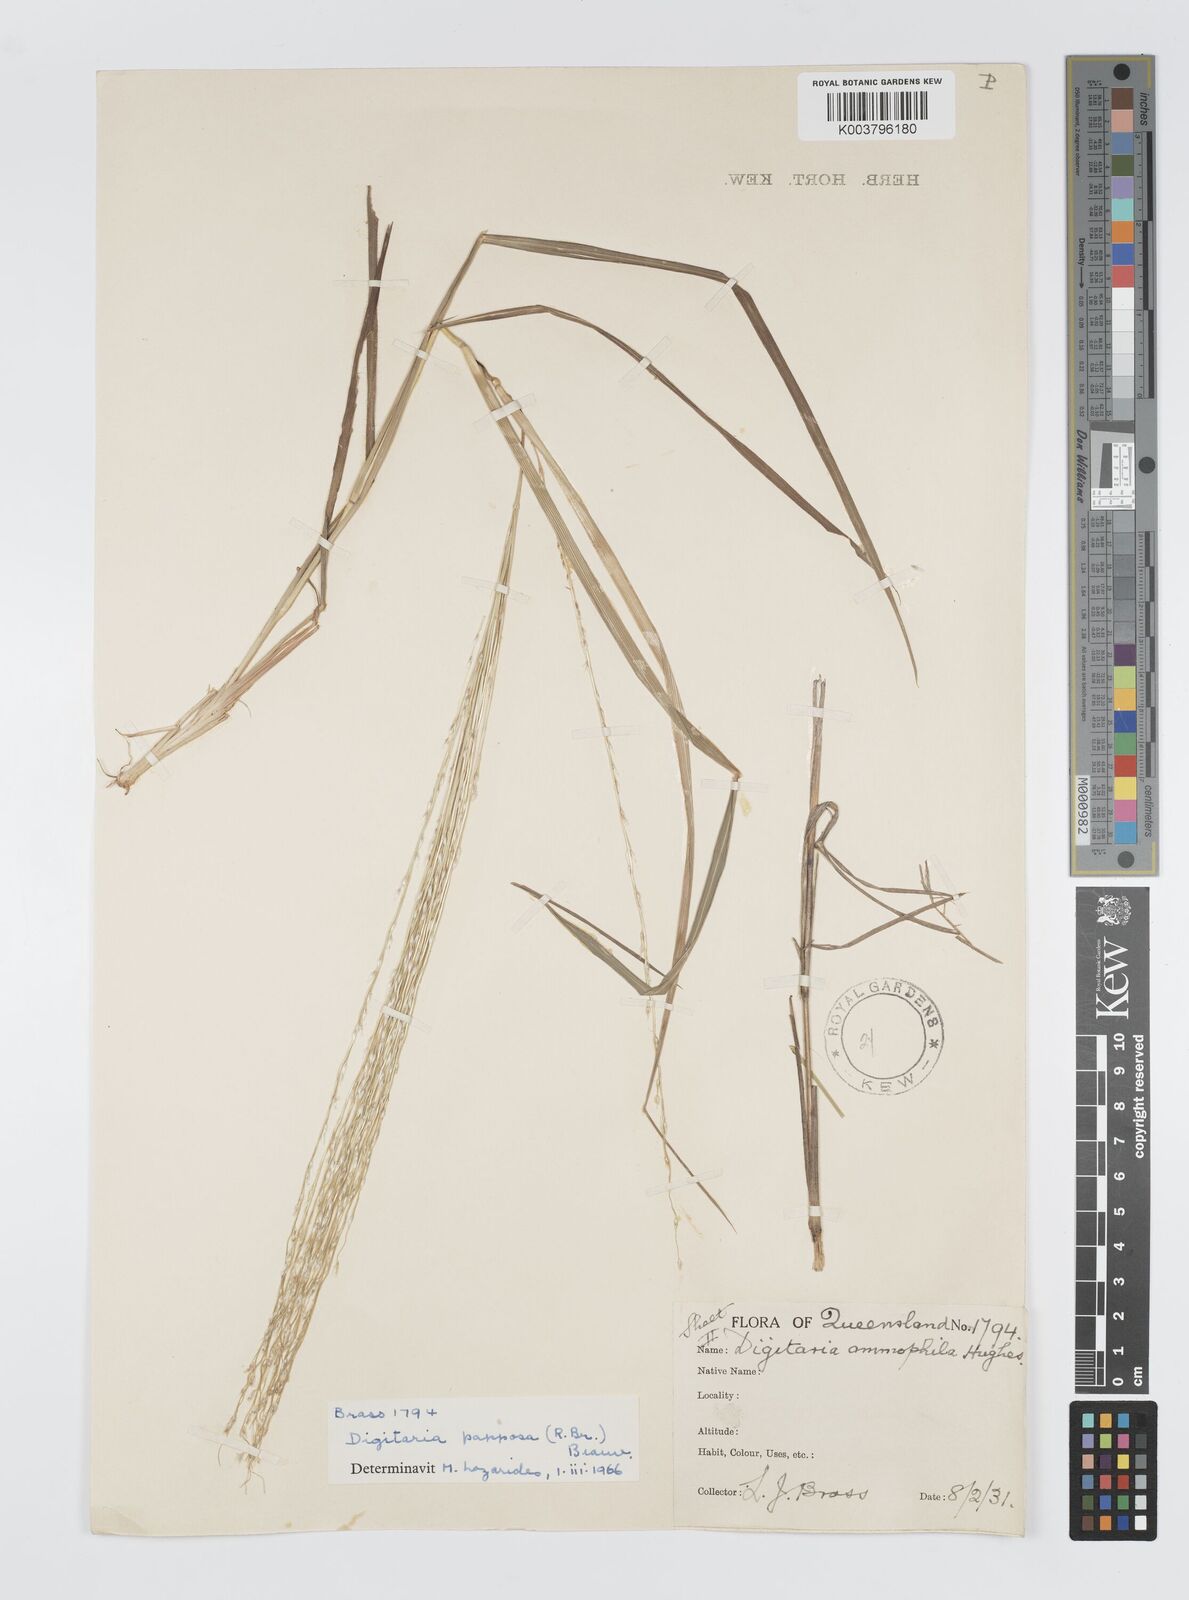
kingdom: Plantae
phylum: Tracheophyta
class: Liliopsida
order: Poales
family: Poaceae
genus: Digitaria
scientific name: Digitaria papposa
